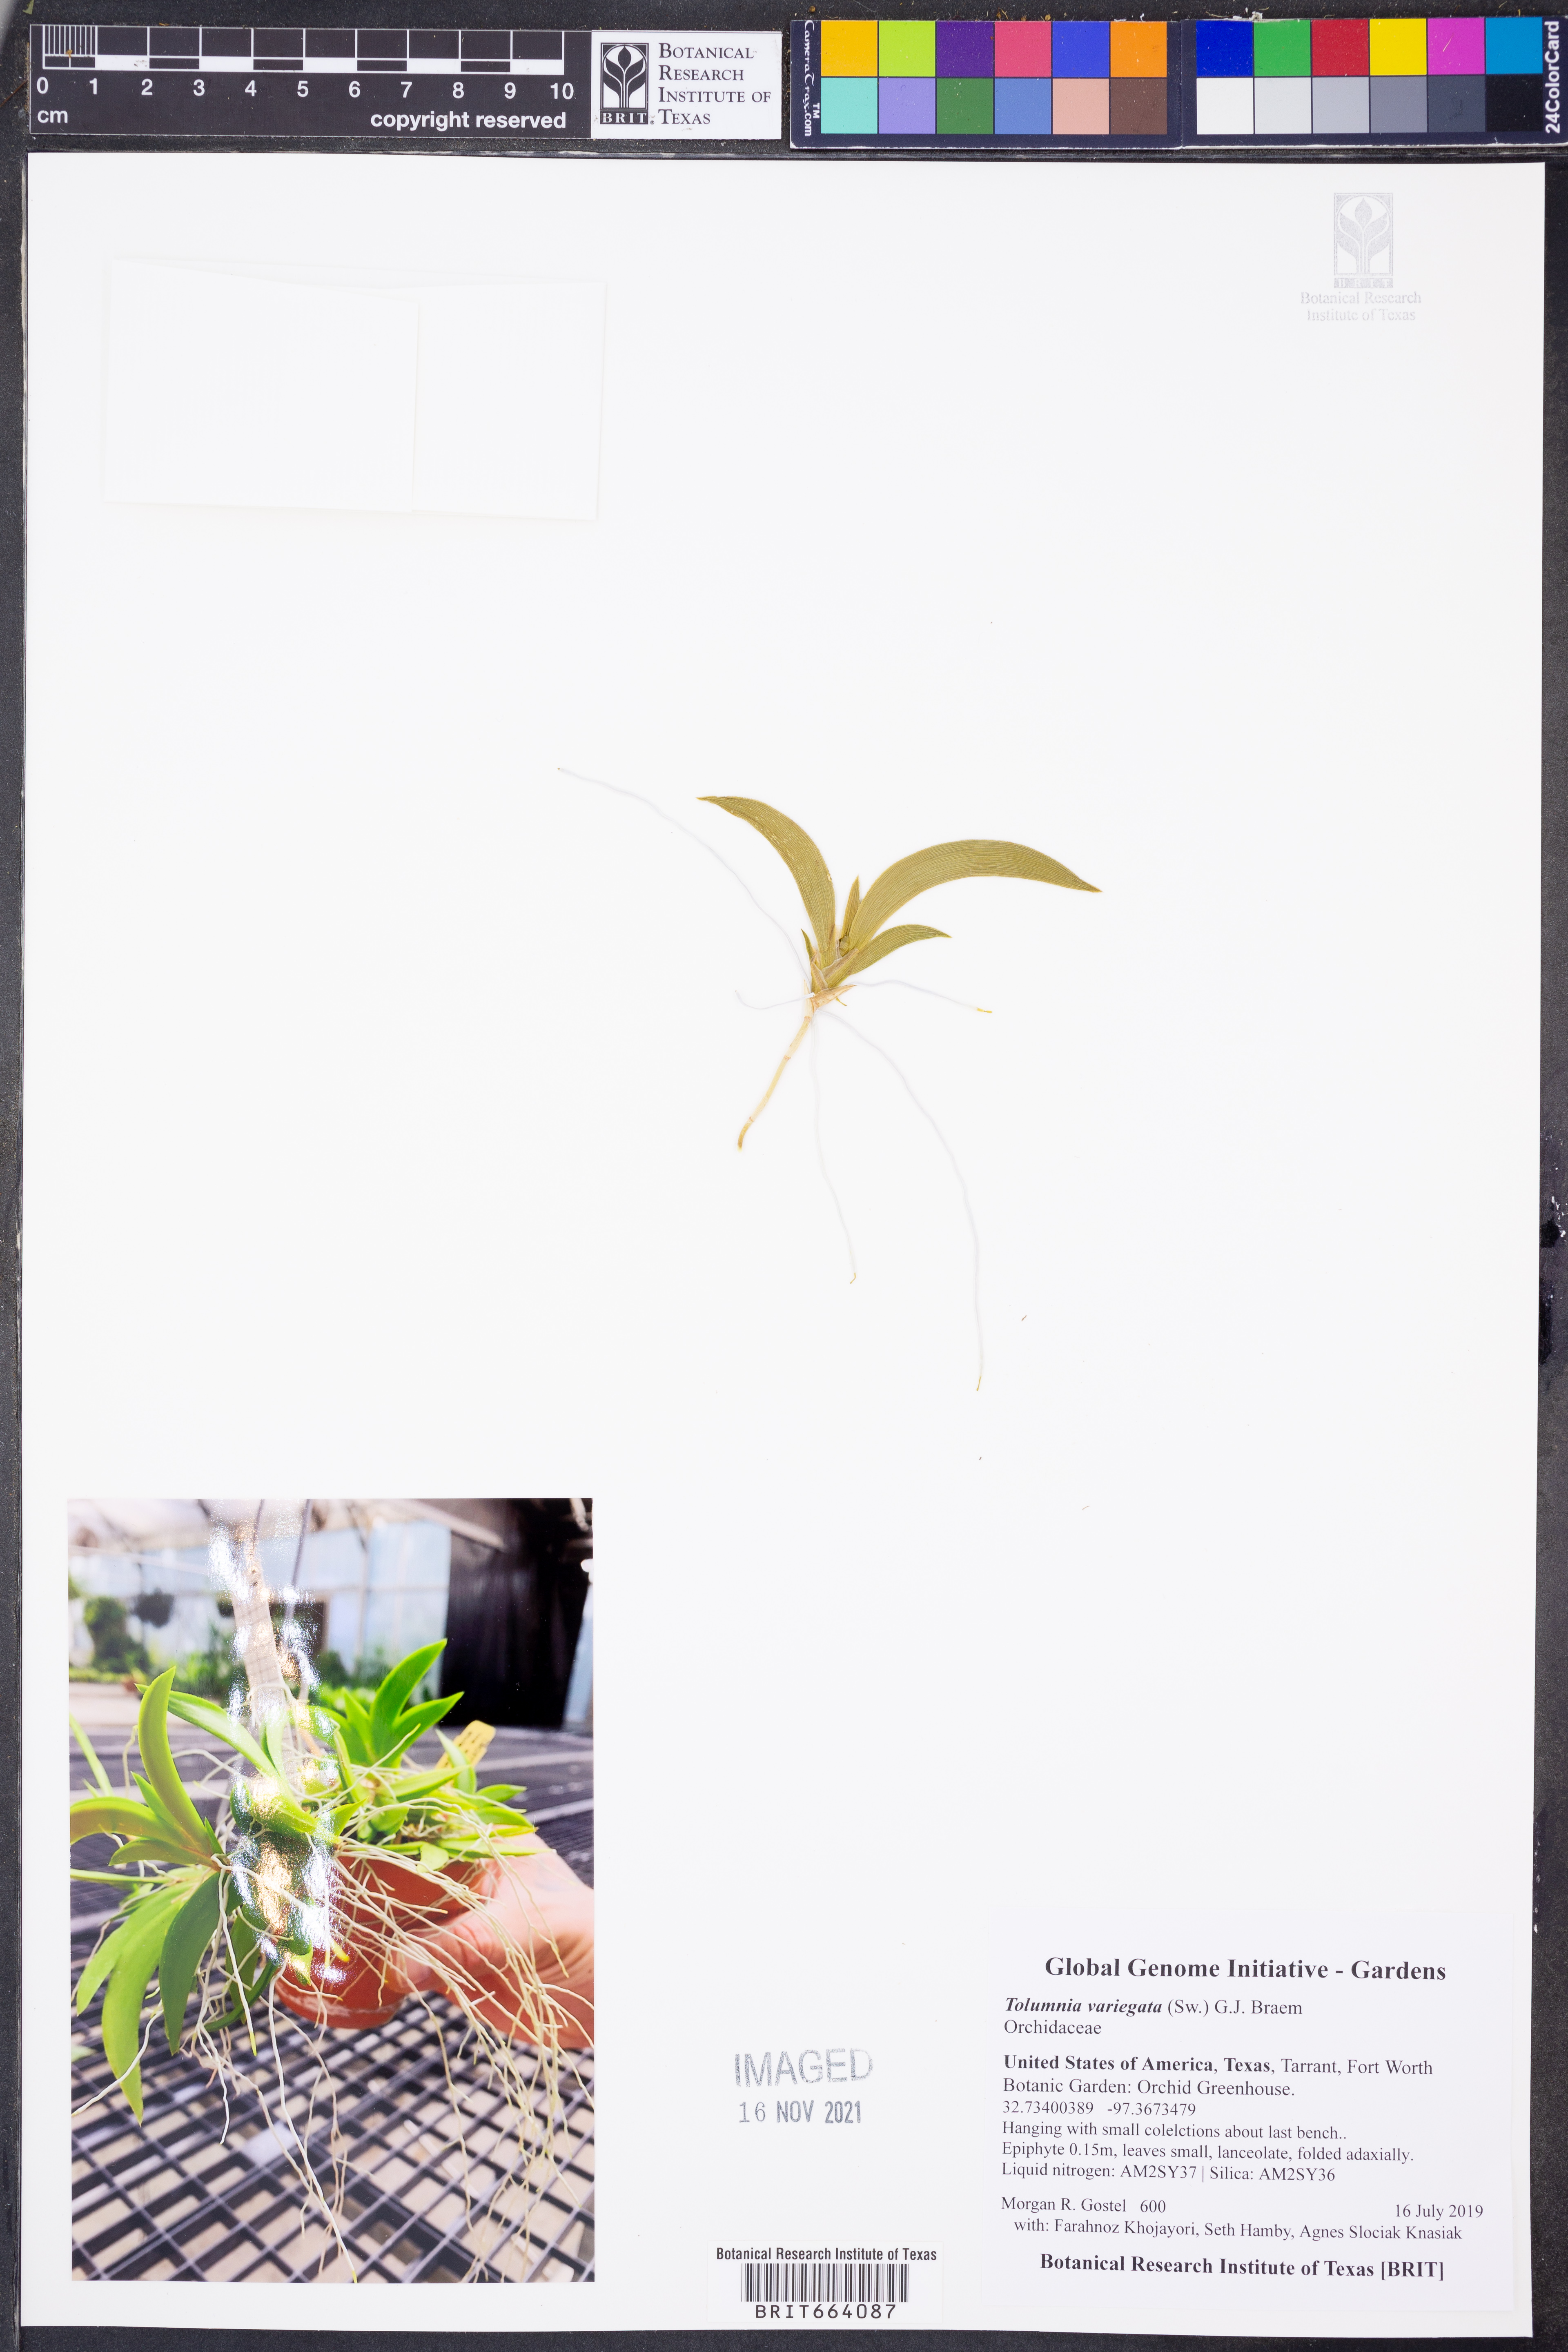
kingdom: Plantae
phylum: Tracheophyta
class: Liliopsida
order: Asparagales
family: Orchidaceae
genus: Tolumnia
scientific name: Tolumnia variegata
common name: Harlequin dancing-lady orchid
